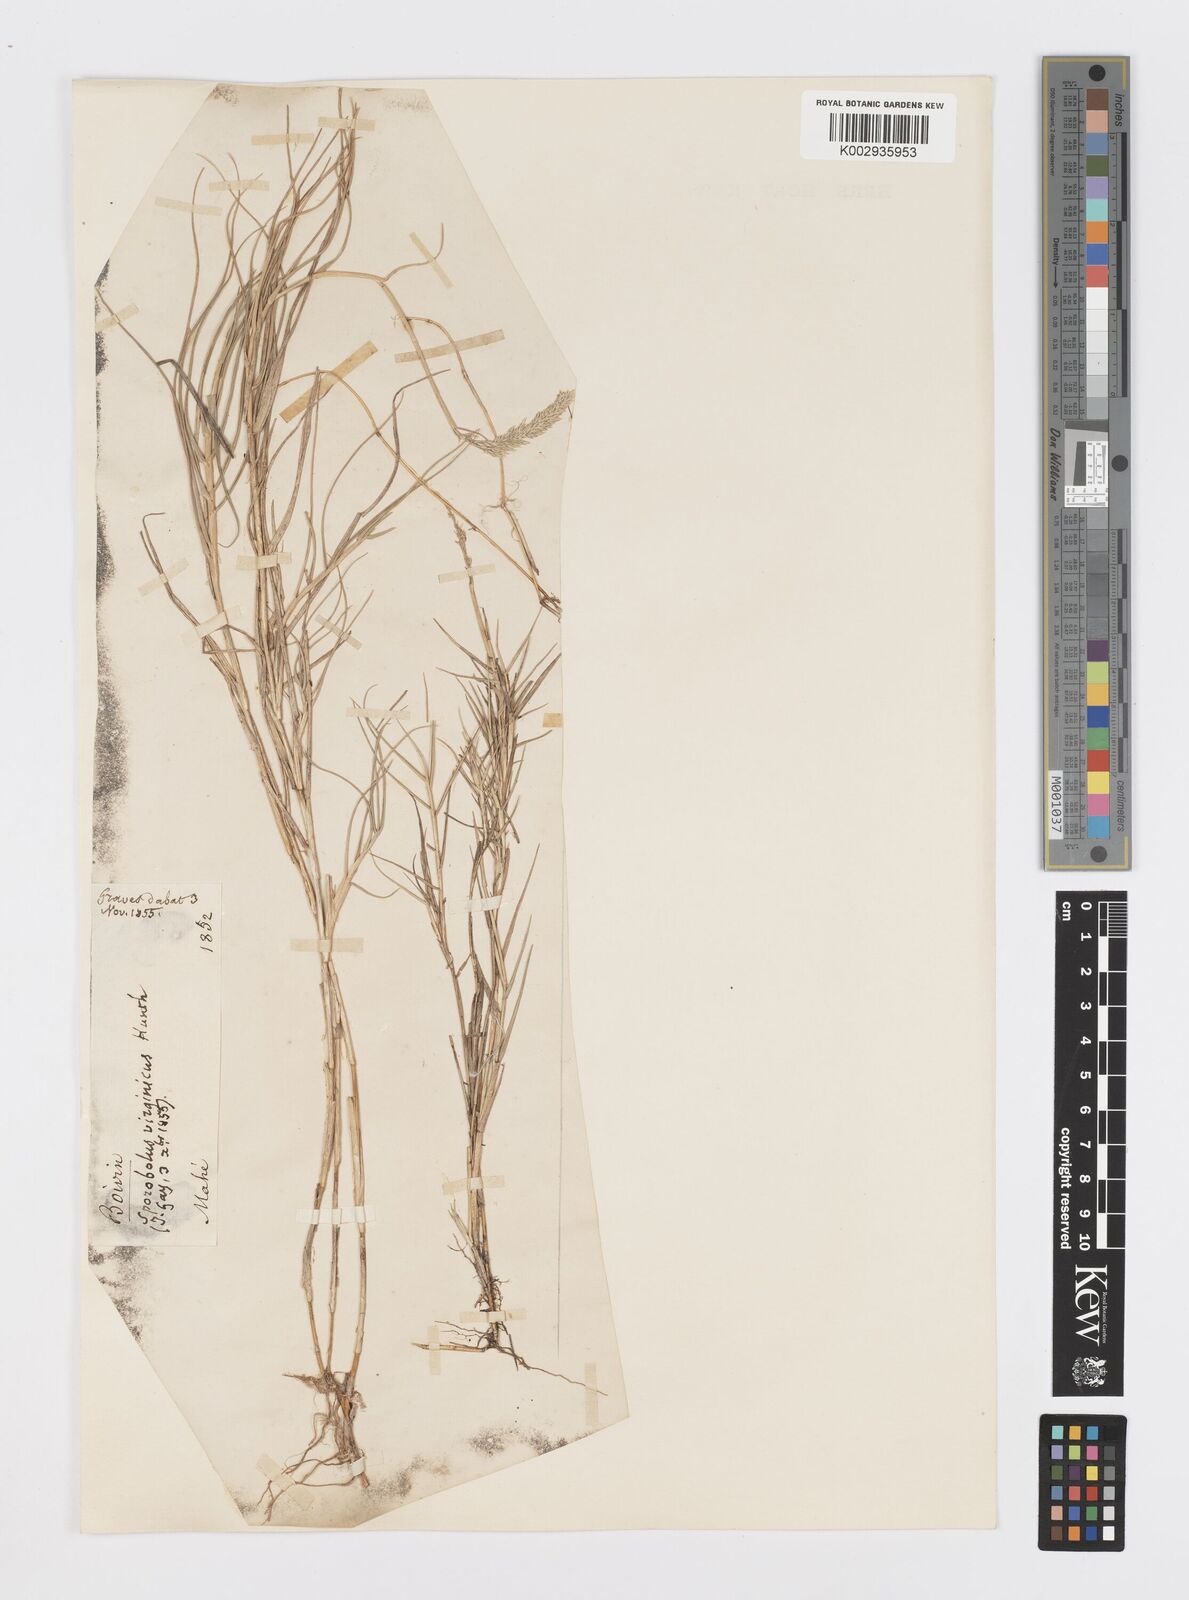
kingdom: Plantae
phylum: Tracheophyta
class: Liliopsida
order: Poales
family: Poaceae
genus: Sporobolus
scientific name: Sporobolus virginicus
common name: Beach dropseed
